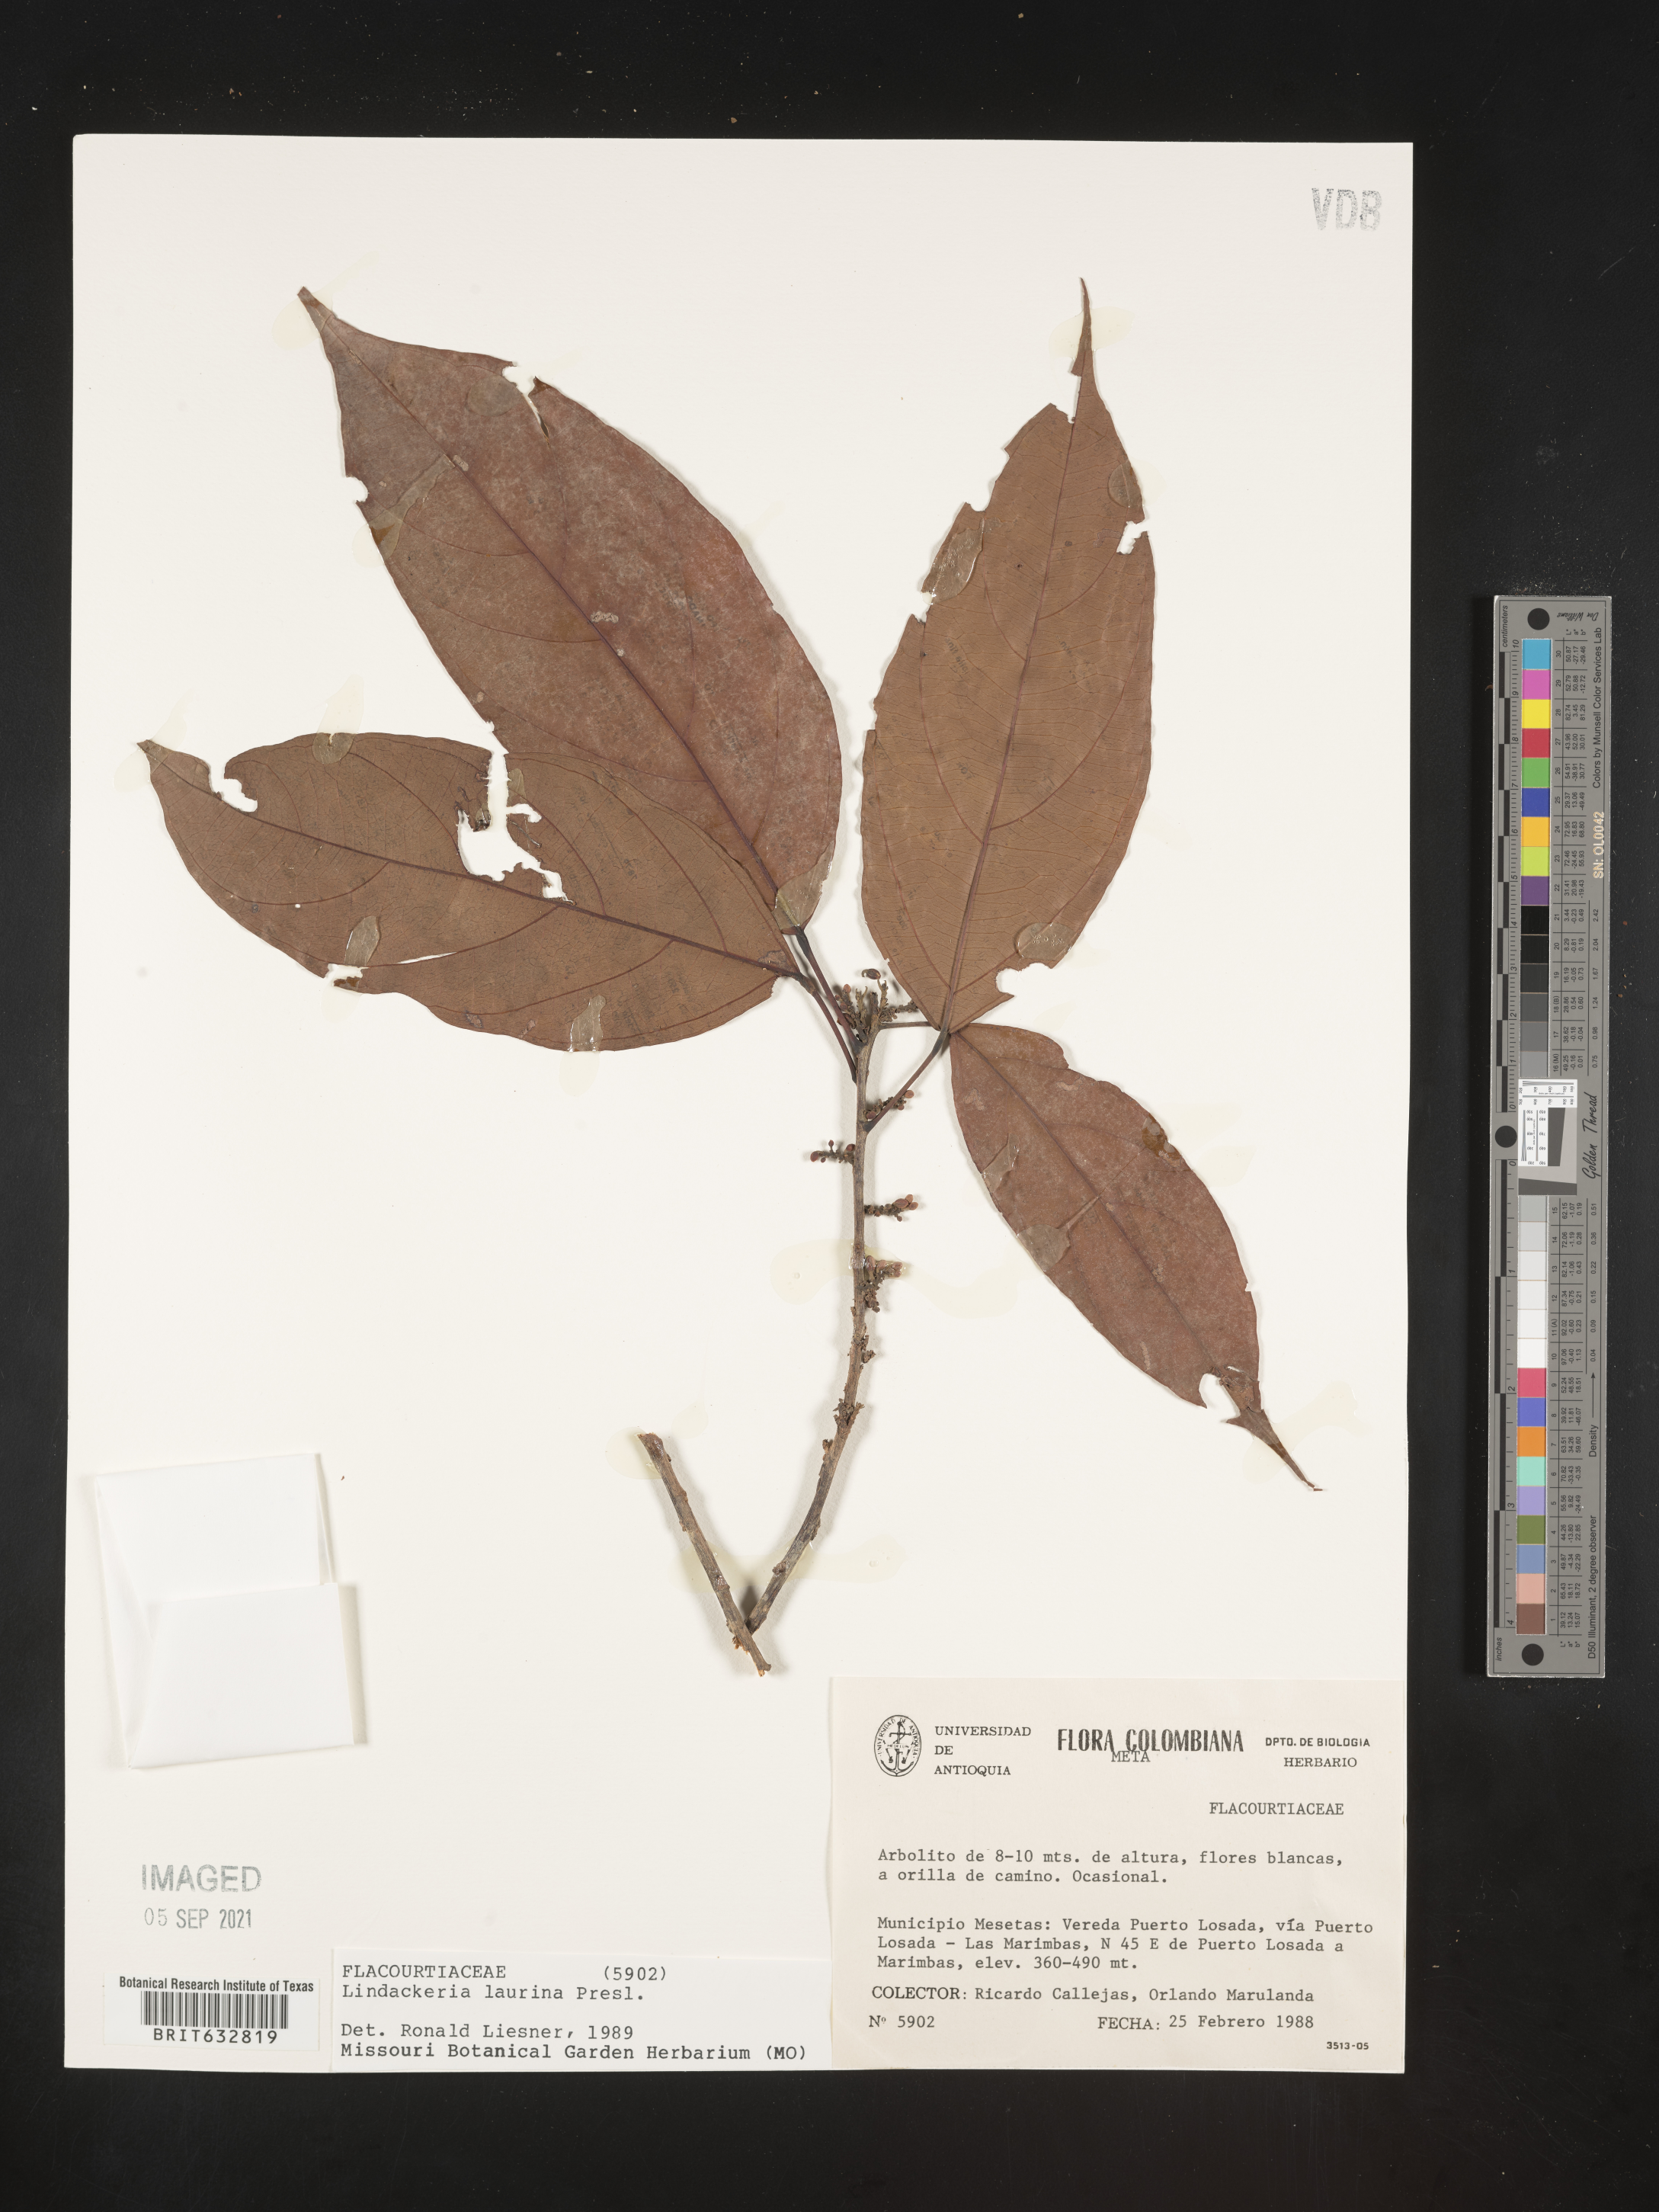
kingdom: Plantae
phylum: Tracheophyta
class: Magnoliopsida
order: Malpighiales
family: Achariaceae
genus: Lindackeria
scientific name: Lindackeria laurina
